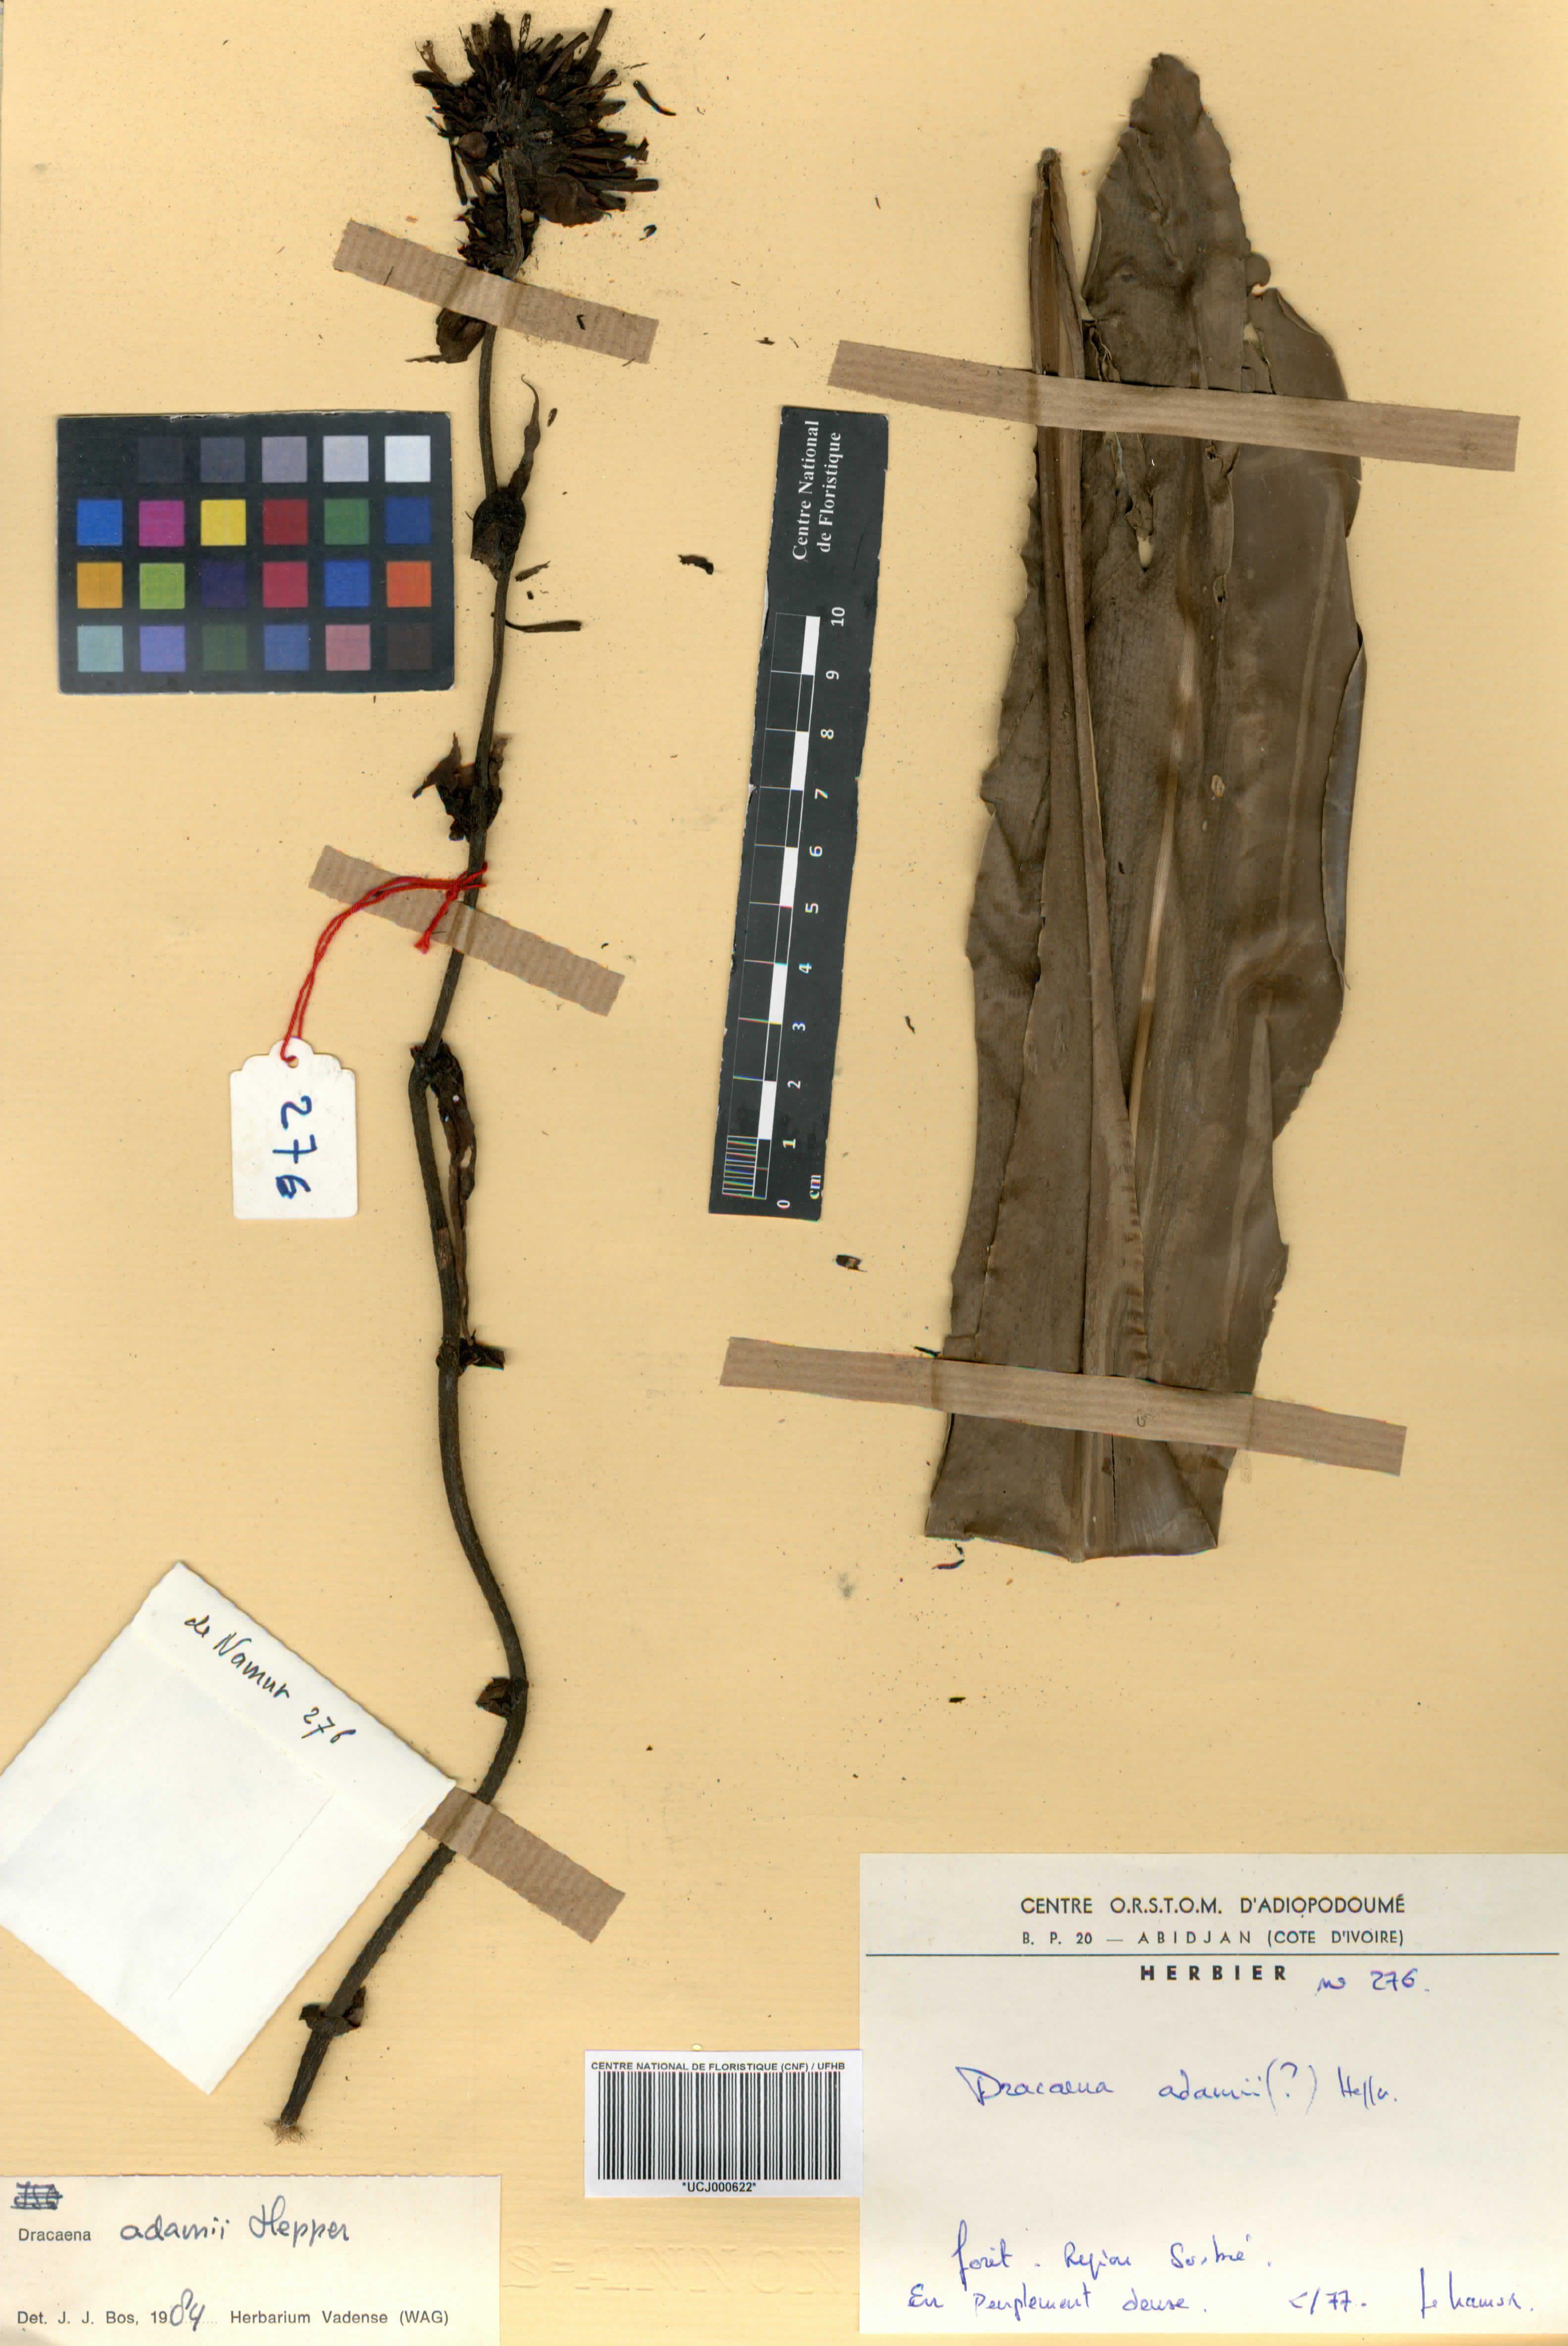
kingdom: Plantae
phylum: Tracheophyta
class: Liliopsida
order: Asparagales
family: Asparagaceae
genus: Dracaena
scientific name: Dracaena adamii
